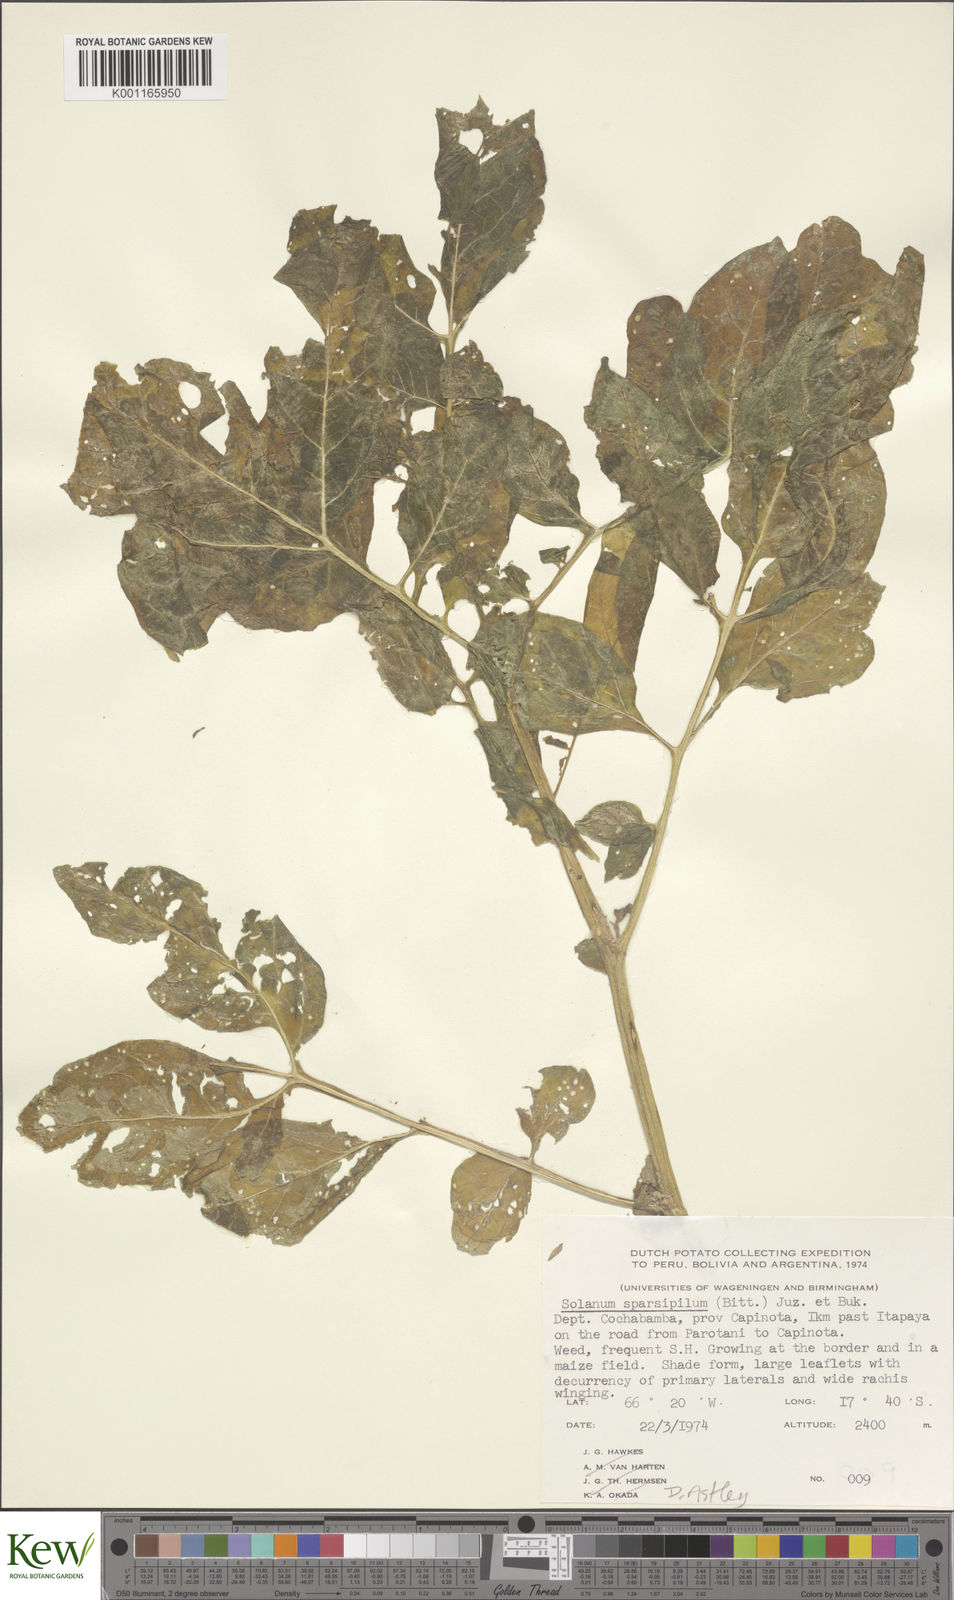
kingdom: Plantae
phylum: Tracheophyta
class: Magnoliopsida
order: Solanales
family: Solanaceae
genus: Solanum
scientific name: Solanum brevicaule
